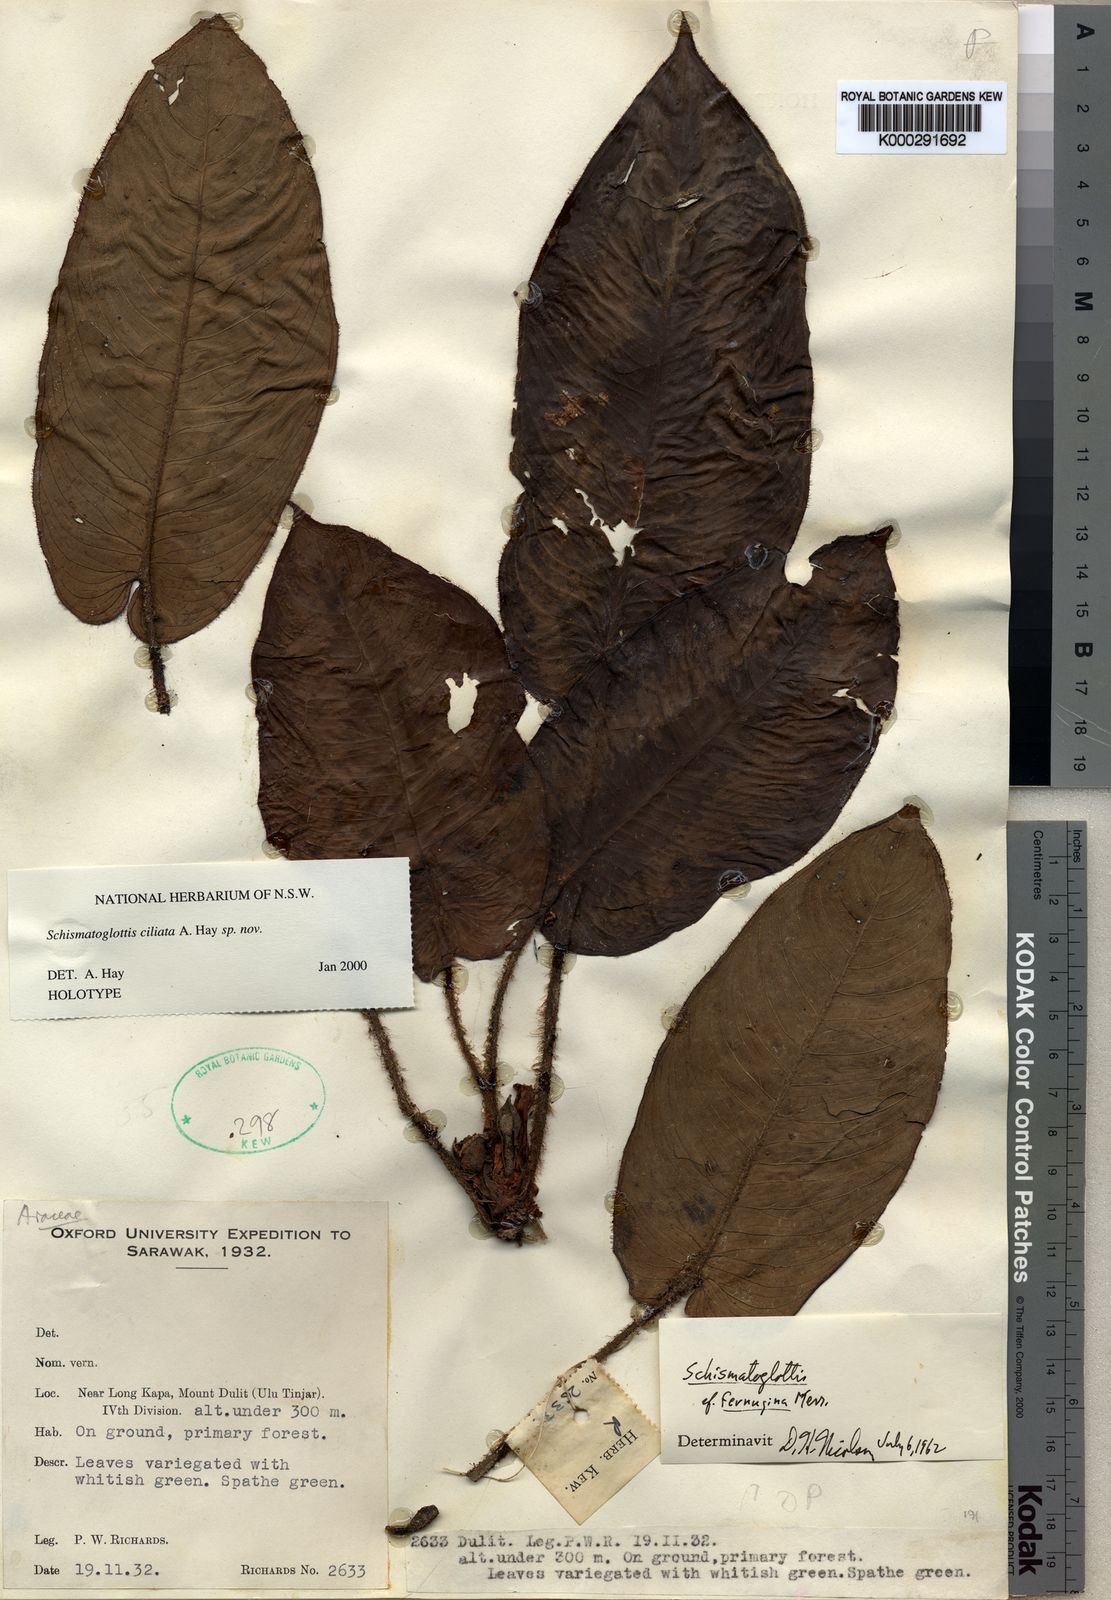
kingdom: Plantae
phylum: Tracheophyta
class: Liliopsida
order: Alismatales
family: Araceae
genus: Schismatoglottis
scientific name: Schismatoglottis ciliata
